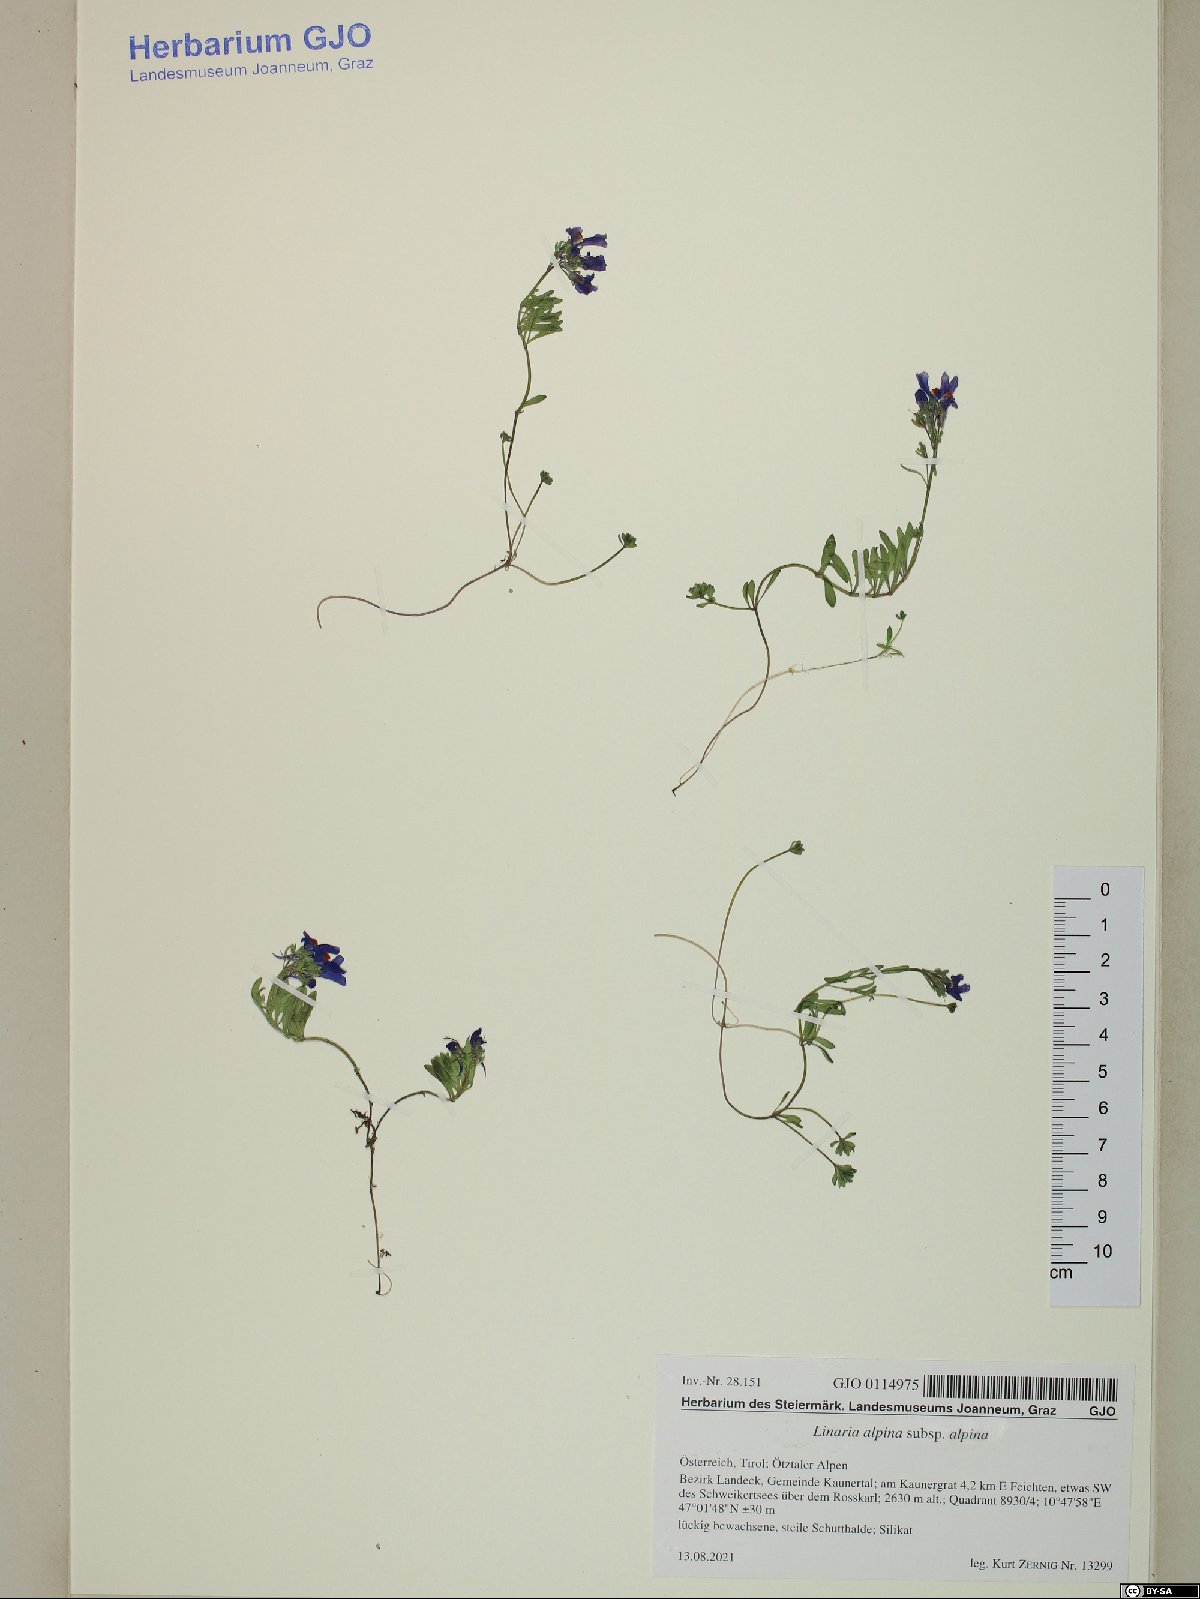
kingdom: Plantae
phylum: Tracheophyta
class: Magnoliopsida
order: Lamiales
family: Plantaginaceae
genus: Linaria
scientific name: Linaria alpina
